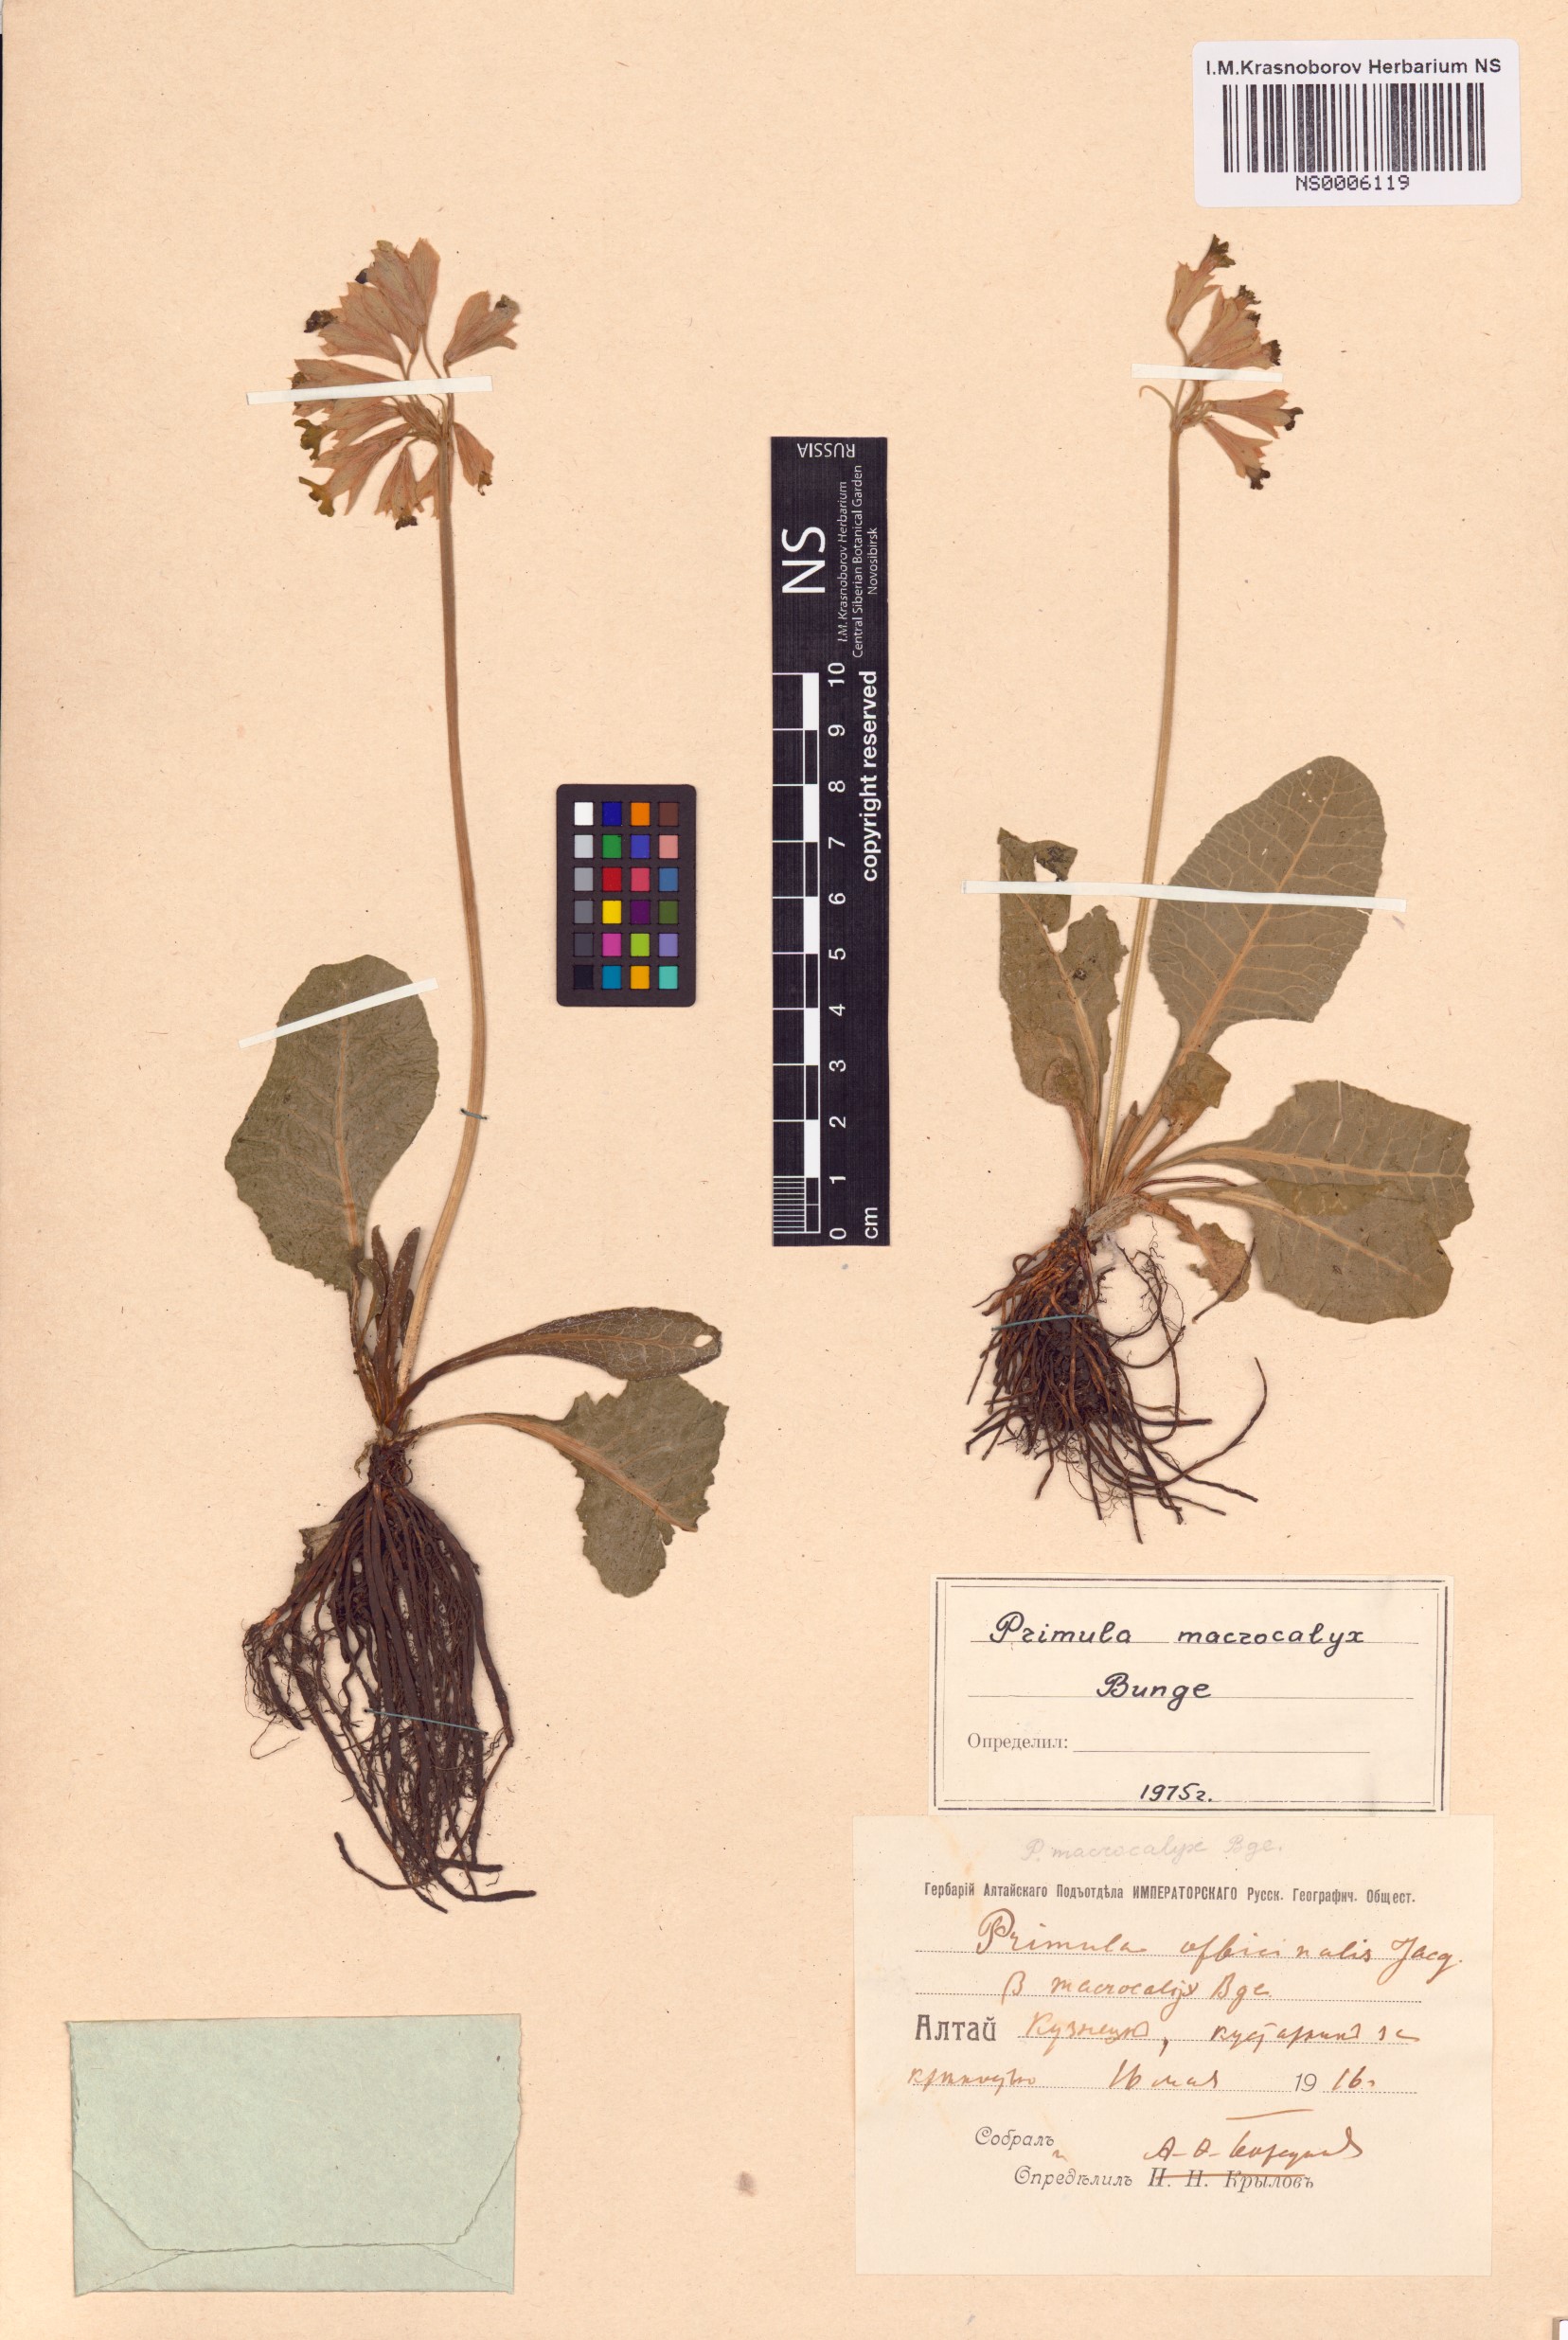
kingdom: Plantae
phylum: Tracheophyta
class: Magnoliopsida
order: Ericales
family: Primulaceae
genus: Primula
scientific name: Primula veris
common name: Cowslip
